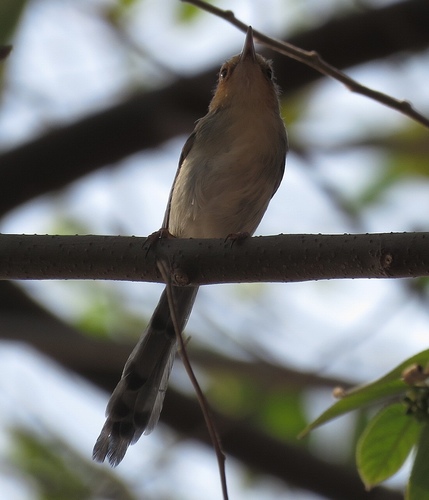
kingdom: Animalia
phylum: Chordata
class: Aves
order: Passeriformes
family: Cisticolidae
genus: Prinia
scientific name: Prinia molleri
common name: Sao tome prinia
